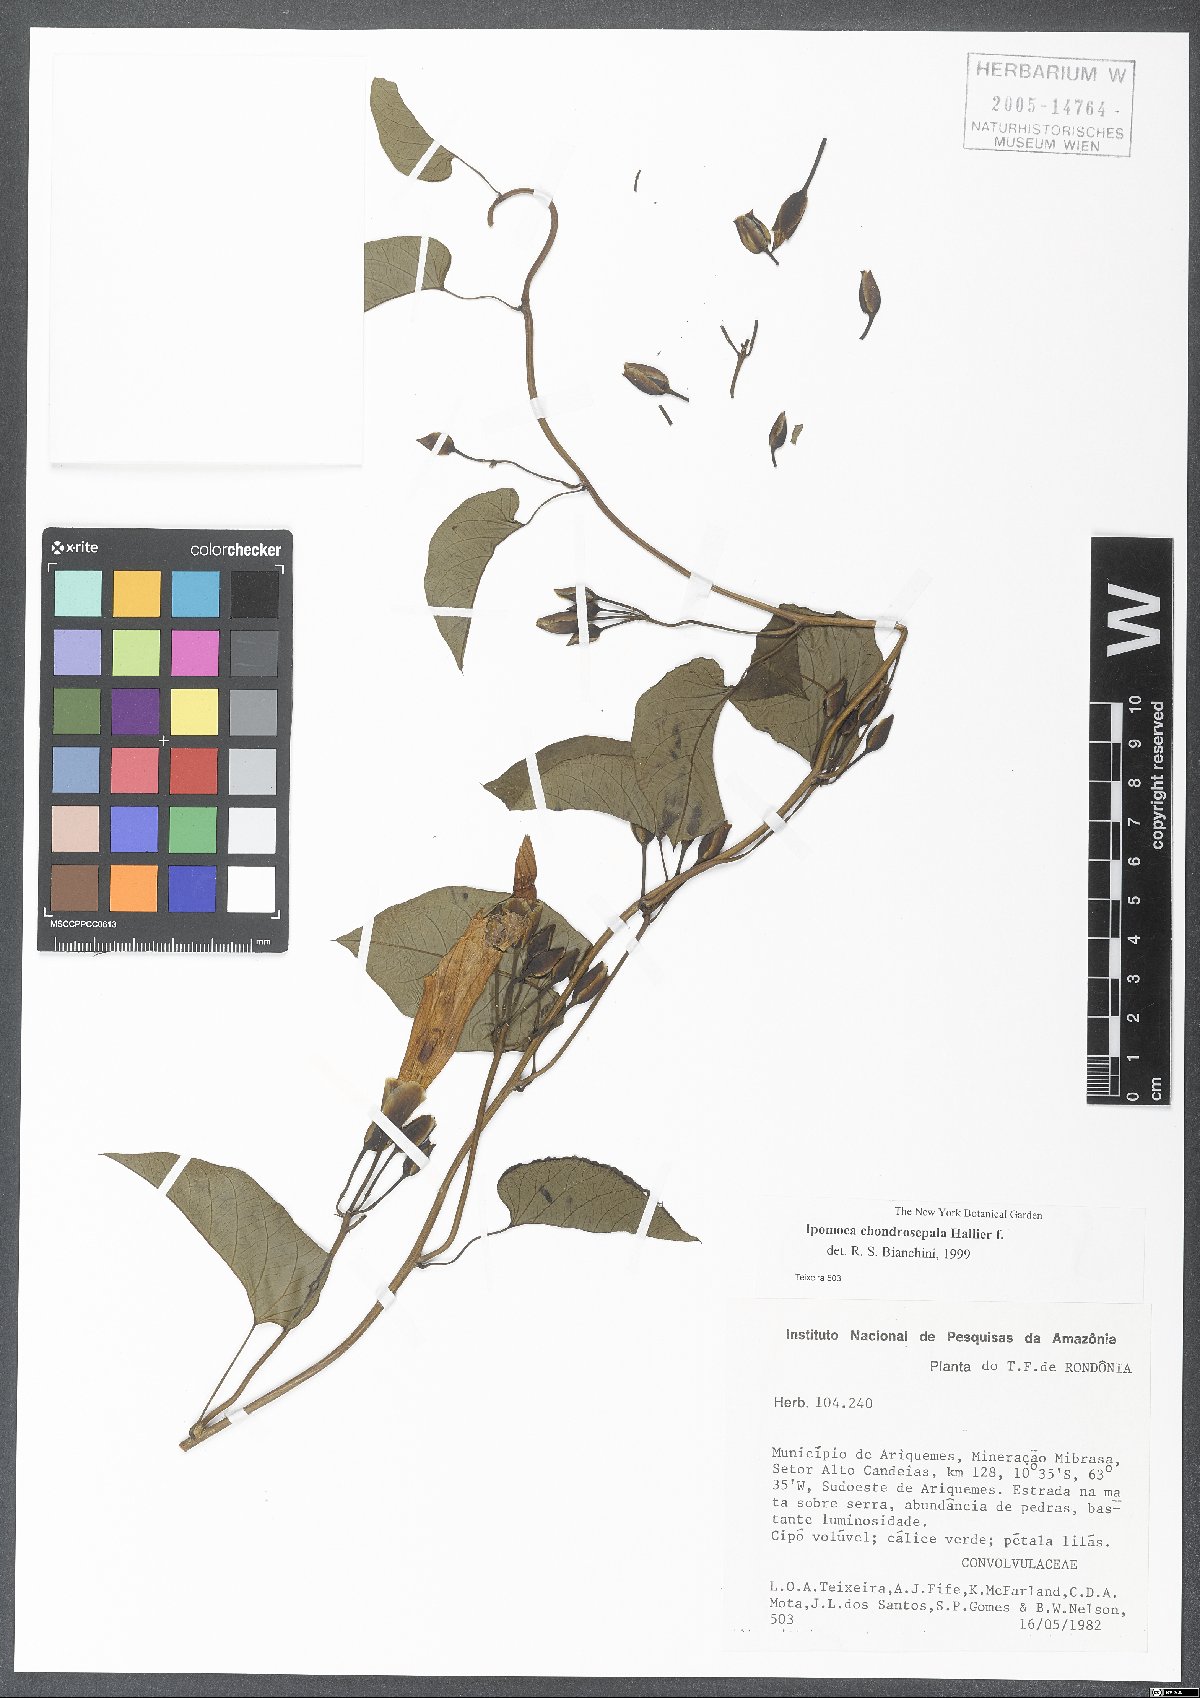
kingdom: Plantae
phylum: Tracheophyta
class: Magnoliopsida
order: Solanales
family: Convolvulaceae
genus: Ipomoea
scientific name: Ipomoea chondrosepala
